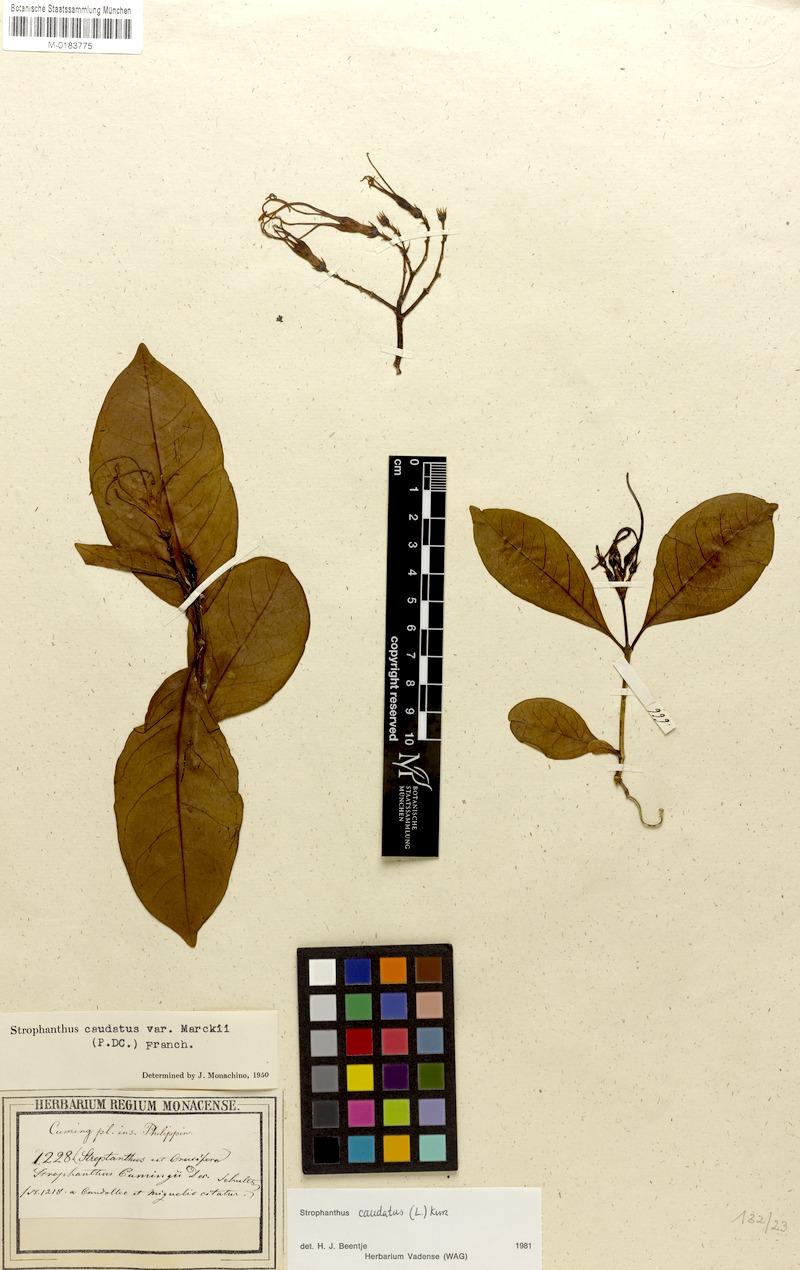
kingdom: Plantae
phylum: Tracheophyta
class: Magnoliopsida
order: Gentianales
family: Apocynaceae
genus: Strophanthus
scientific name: Strophanthus caudatus
